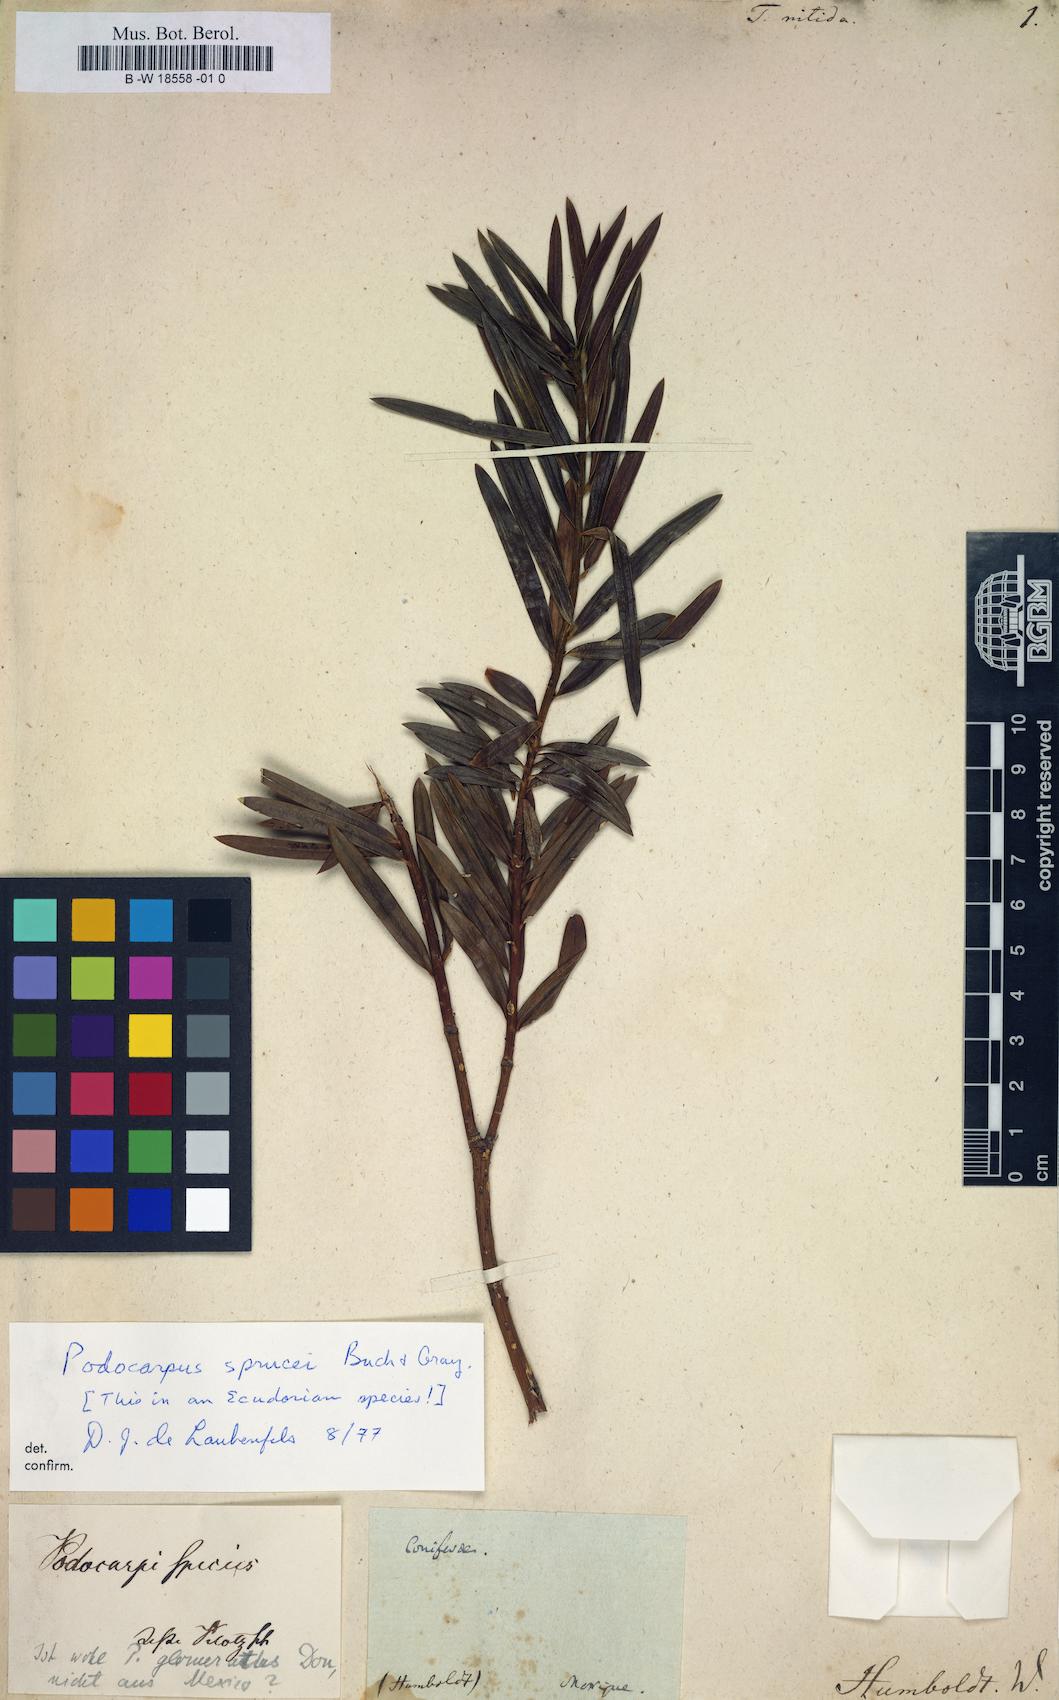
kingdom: Plantae
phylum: Tracheophyta
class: Pinopsida
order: Pinales
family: Taxaceae
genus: Taxus
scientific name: Taxus
